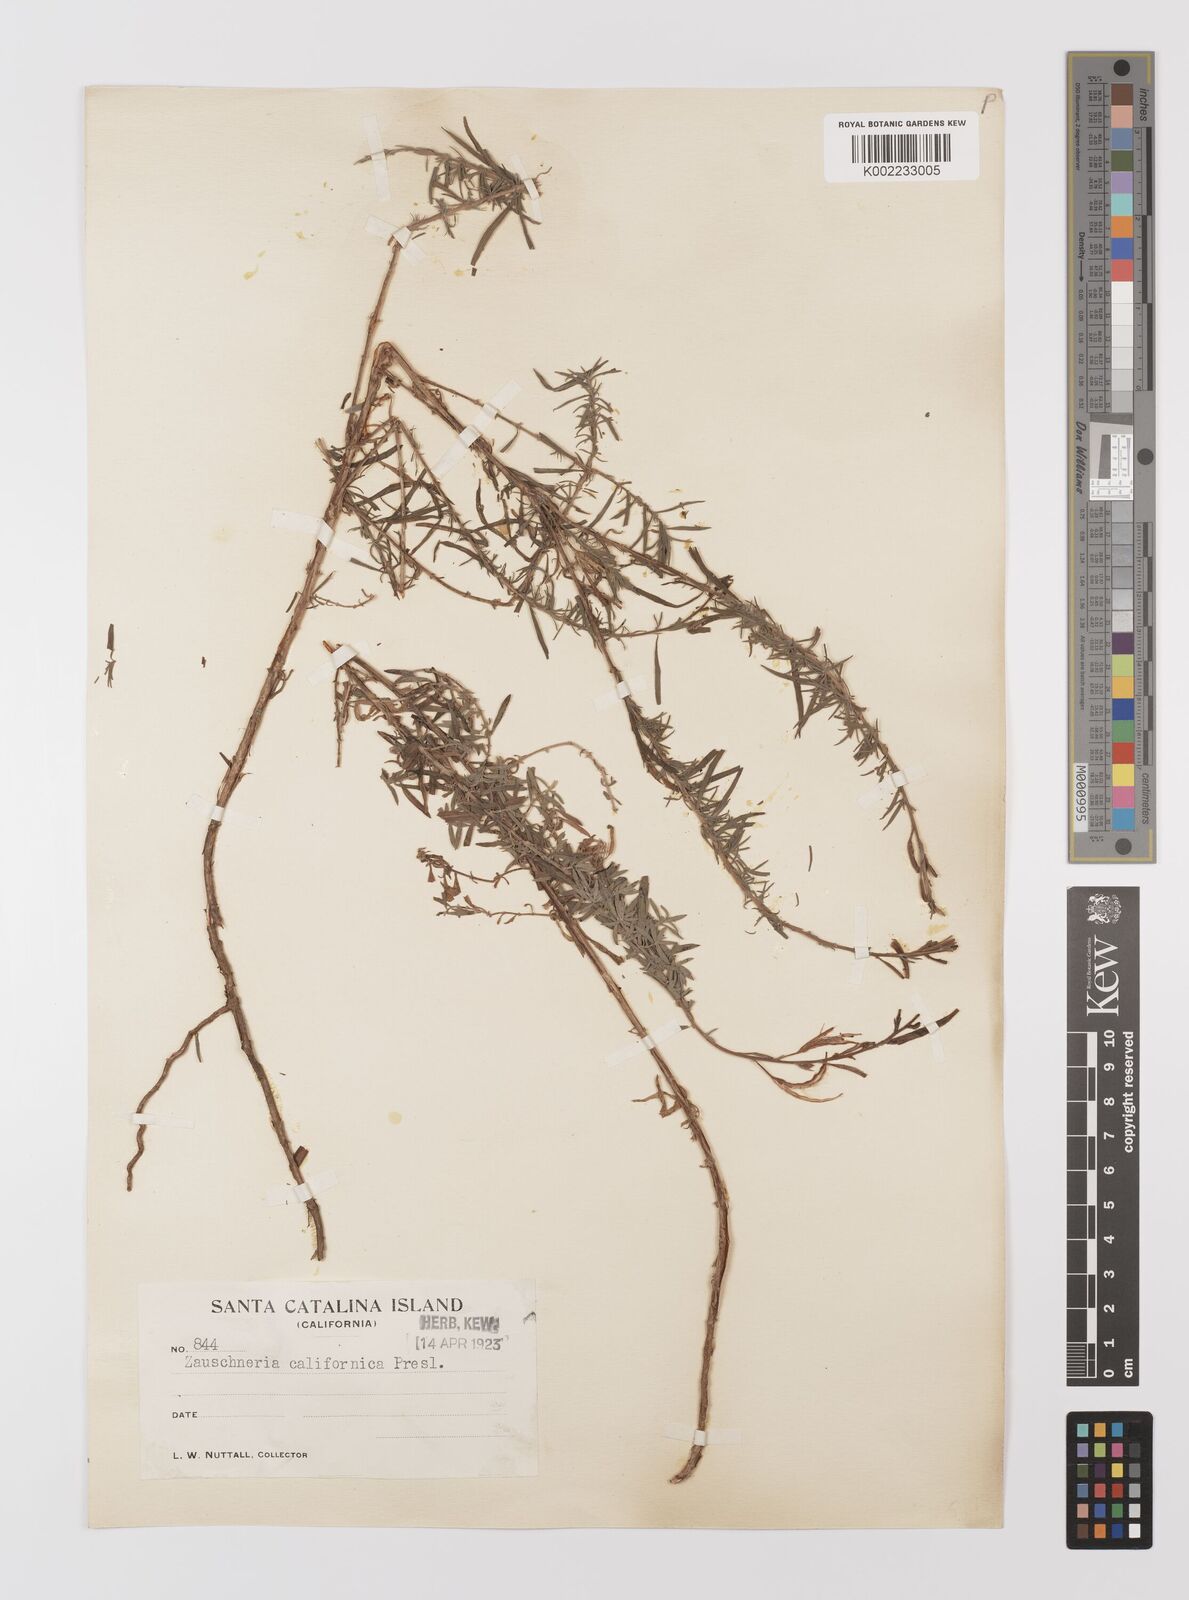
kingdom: Plantae
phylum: Tracheophyta
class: Magnoliopsida
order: Myrtales
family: Onagraceae
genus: Epilobium
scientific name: Epilobium canum
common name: California-fuchsia
